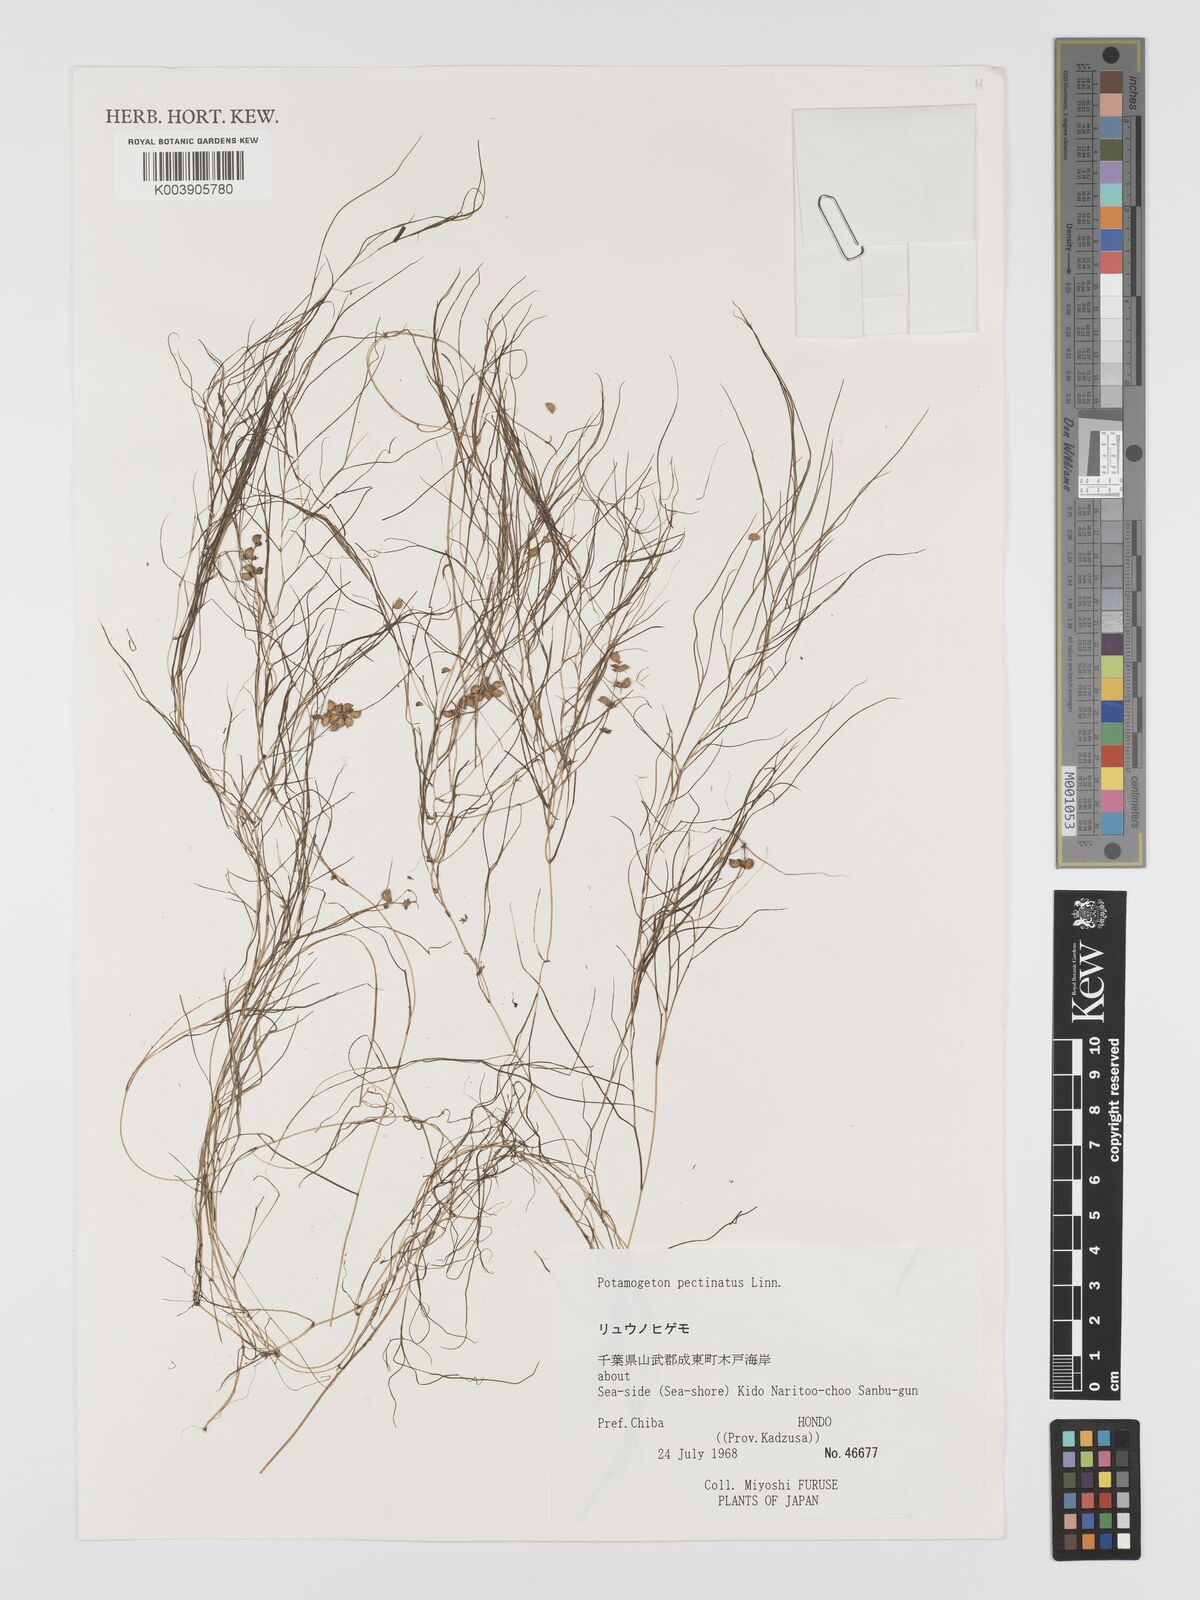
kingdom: Plantae
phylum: Tracheophyta
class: Liliopsida
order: Alismatales
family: Potamogetonaceae
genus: Stuckenia
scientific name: Stuckenia pectinata
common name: Sago pondweed
